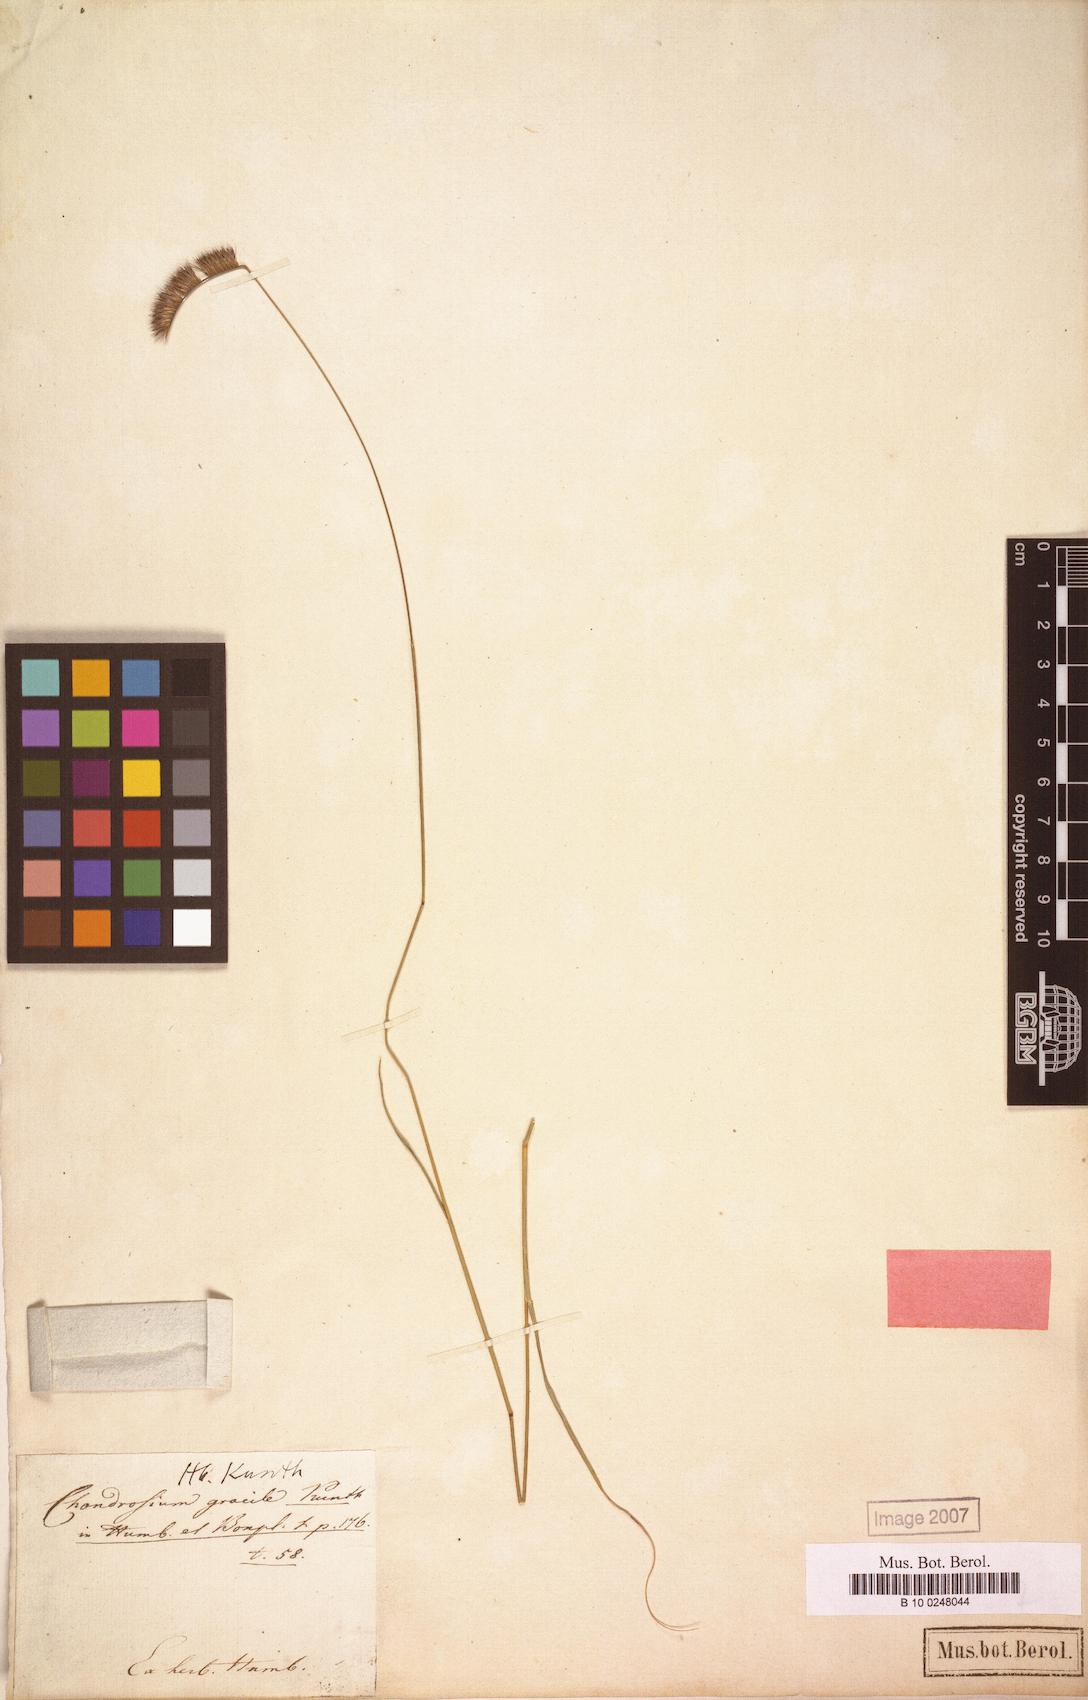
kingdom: Plantae
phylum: Tracheophyta
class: Liliopsida
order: Poales
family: Poaceae
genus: Bouteloua
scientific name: Bouteloua gracilis
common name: Blue grama
